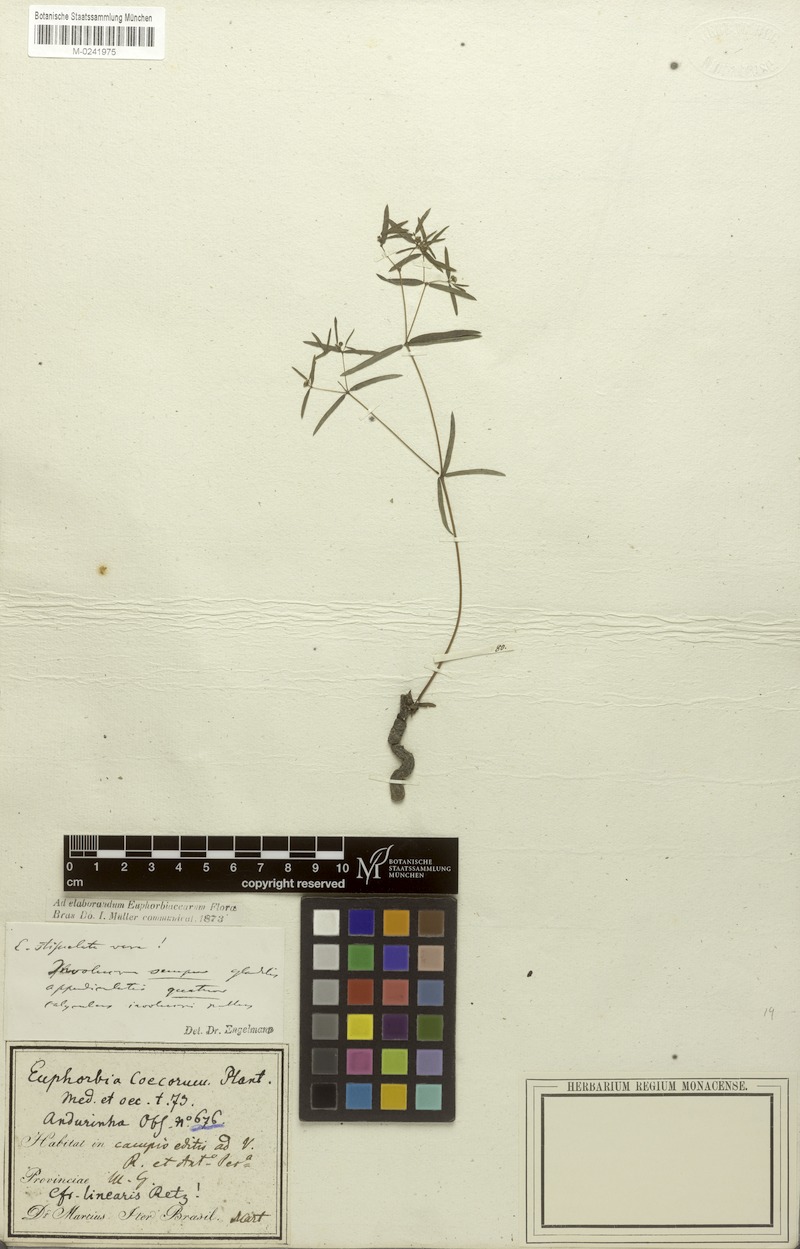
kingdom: Plantae
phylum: Tracheophyta
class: Magnoliopsida
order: Malpighiales
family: Euphorbiaceae
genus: Euphorbia
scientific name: Euphorbia potentilloides
